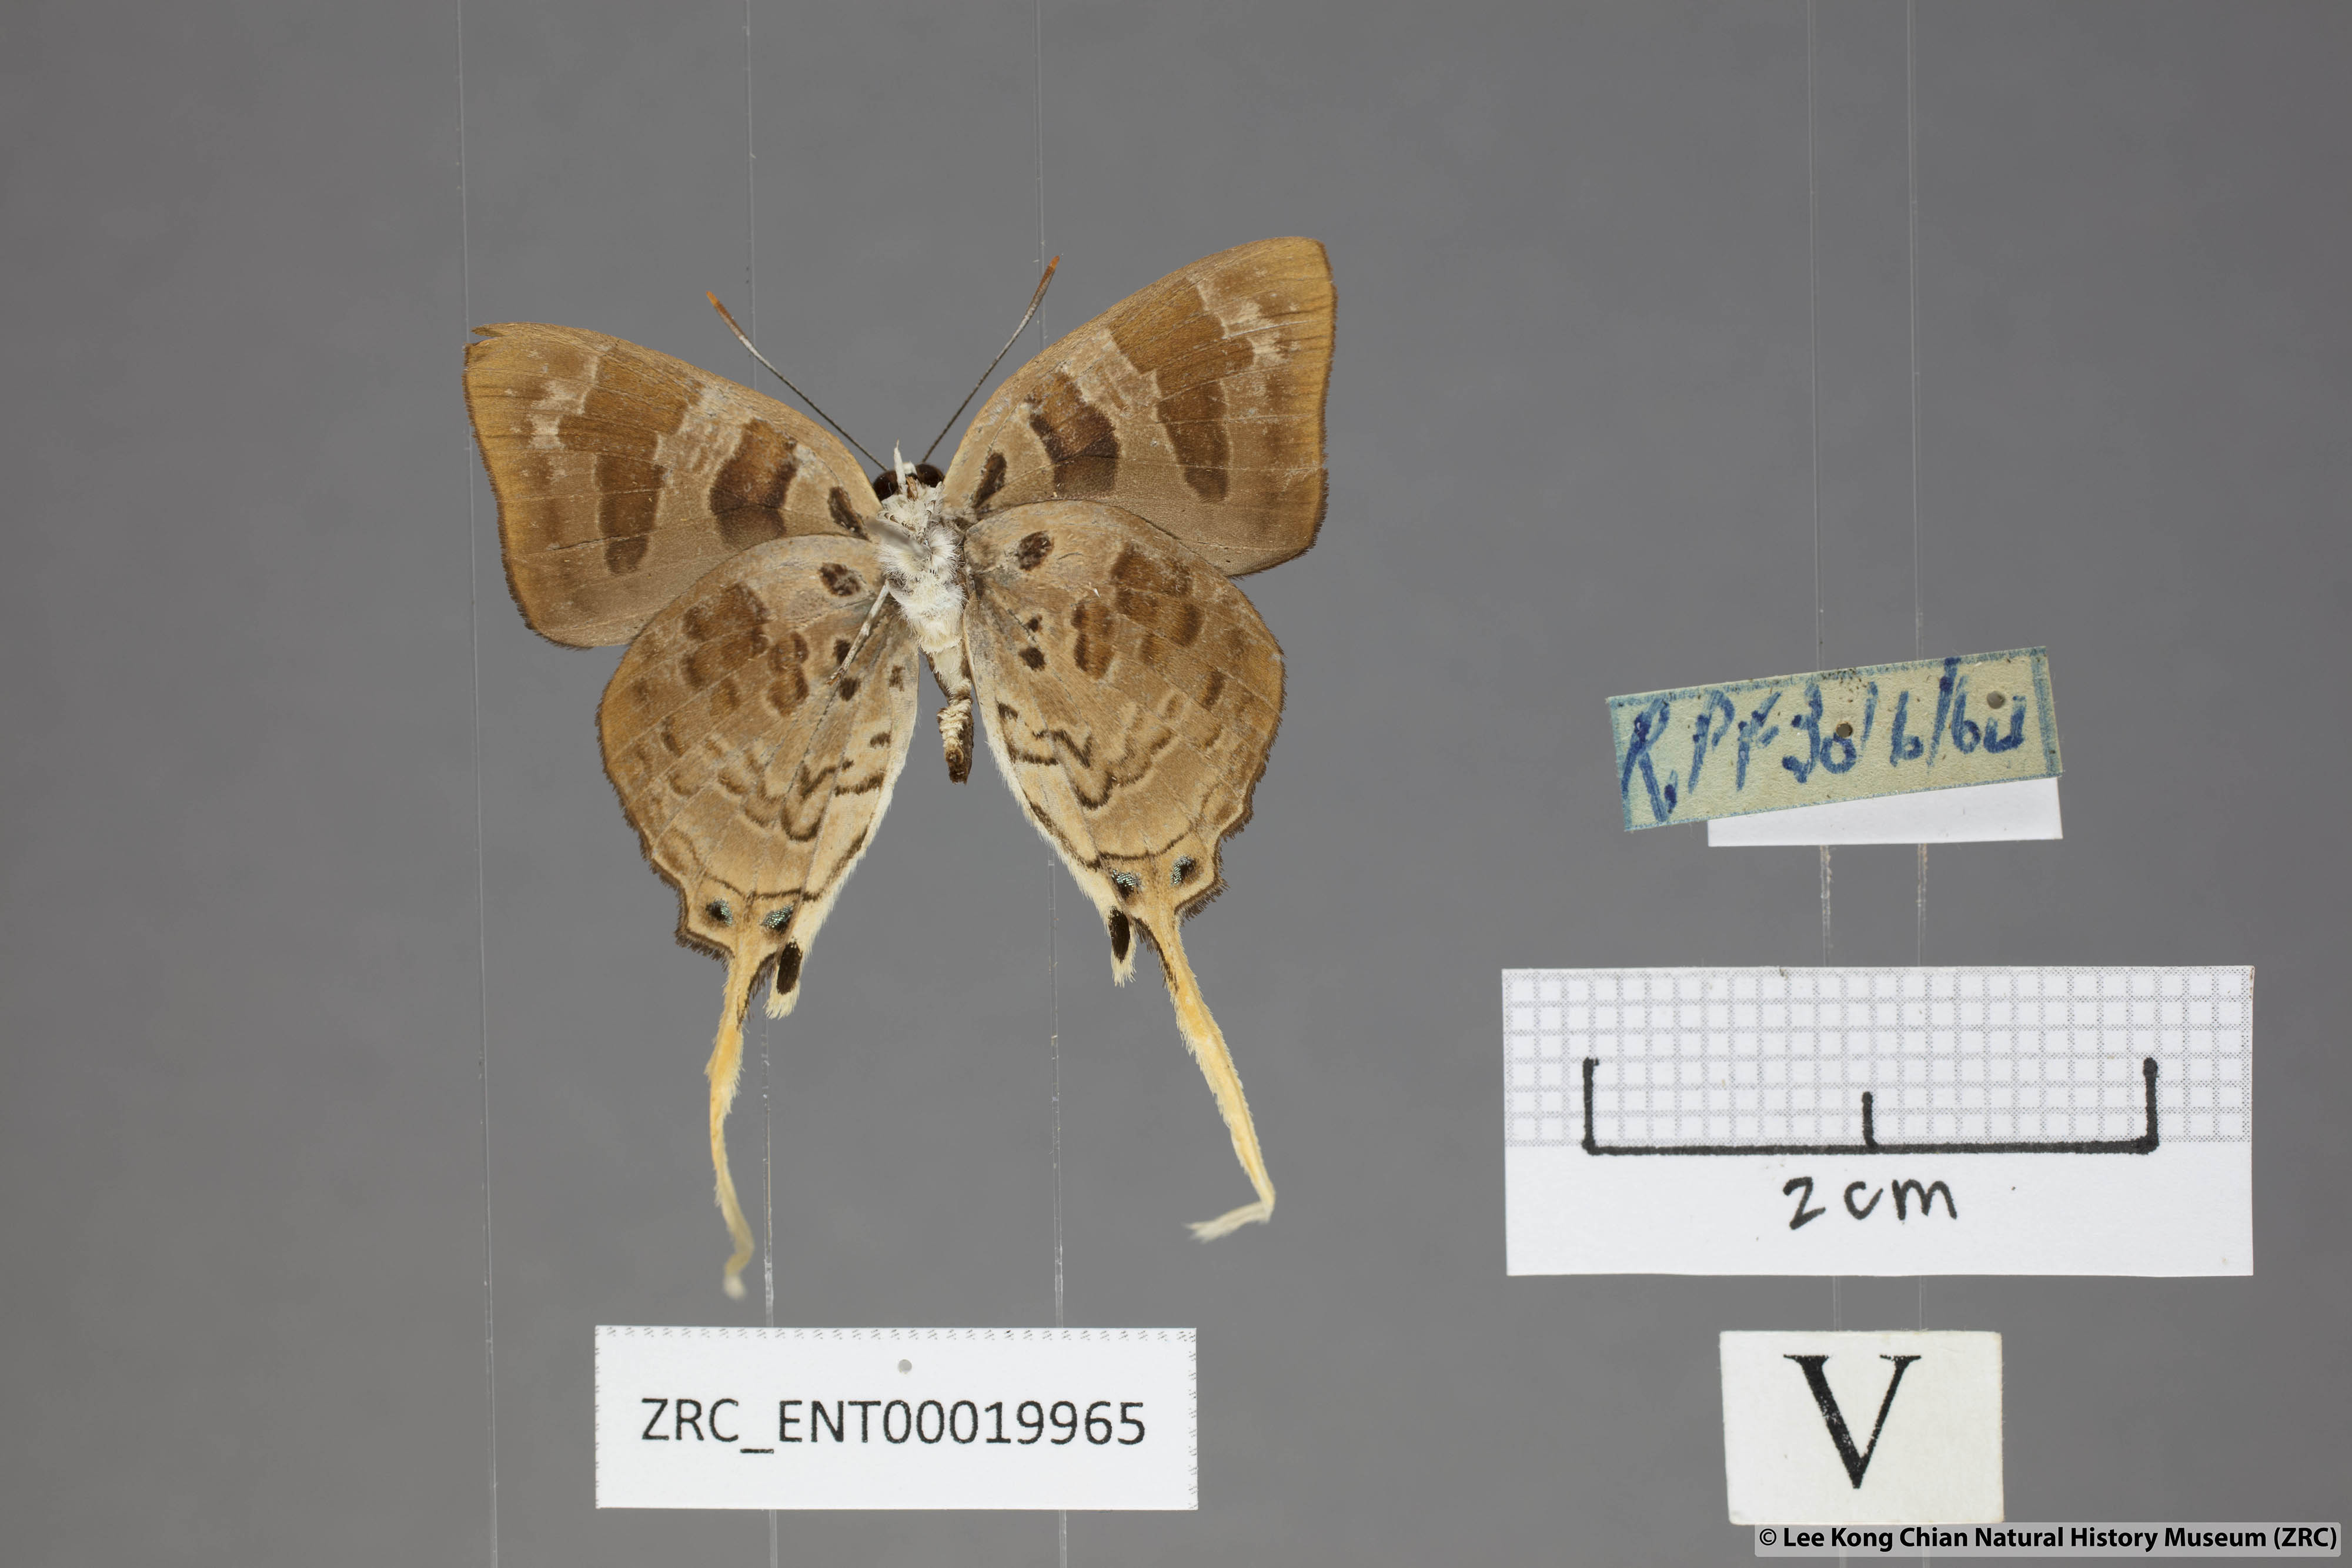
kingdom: Animalia
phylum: Arthropoda
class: Insecta
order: Lepidoptera
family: Lycaenidae
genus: Bindahara
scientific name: Bindahara phocides
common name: Sword-tailed flash
